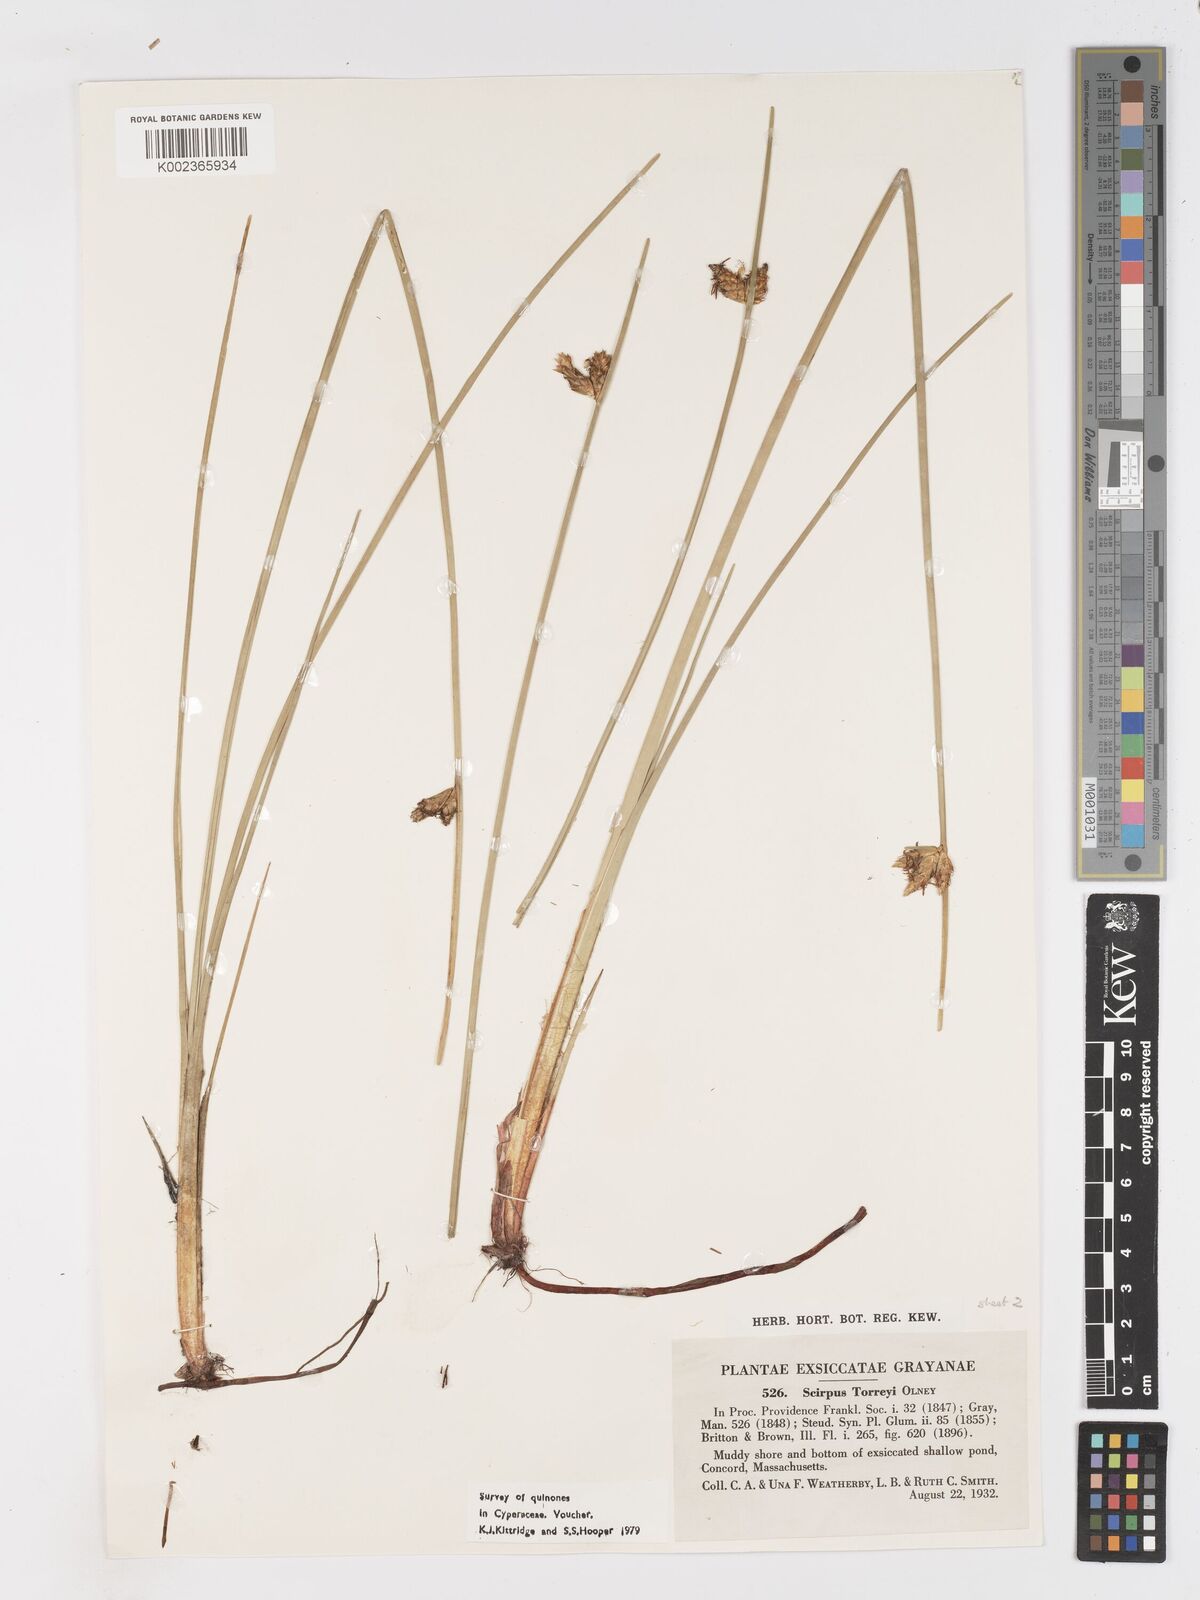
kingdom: Plantae
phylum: Tracheophyta
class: Liliopsida
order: Poales
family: Cyperaceae
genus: Schoenoplectus
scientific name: Schoenoplectus torreyi
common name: Torrey's bulrush
